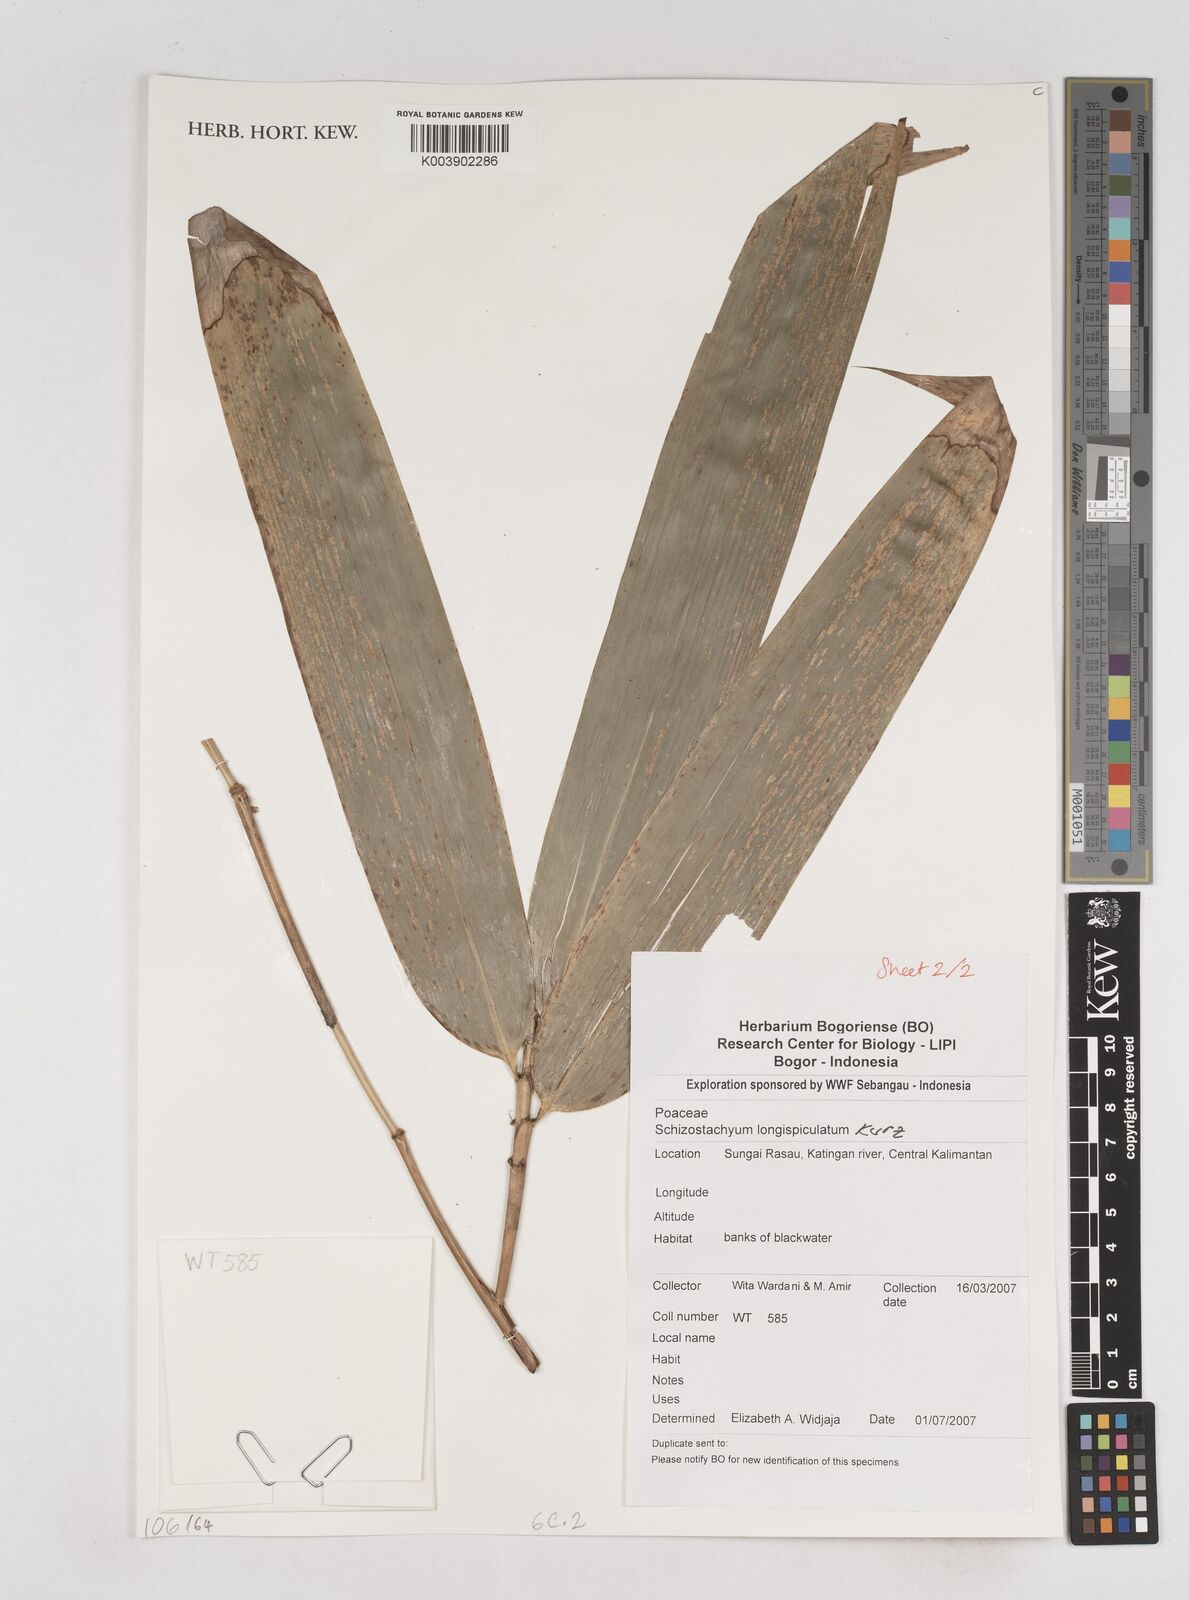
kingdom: Plantae
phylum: Tracheophyta
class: Liliopsida
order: Poales
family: Poaceae
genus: Schizostachyum
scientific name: Schizostachyum blumei
